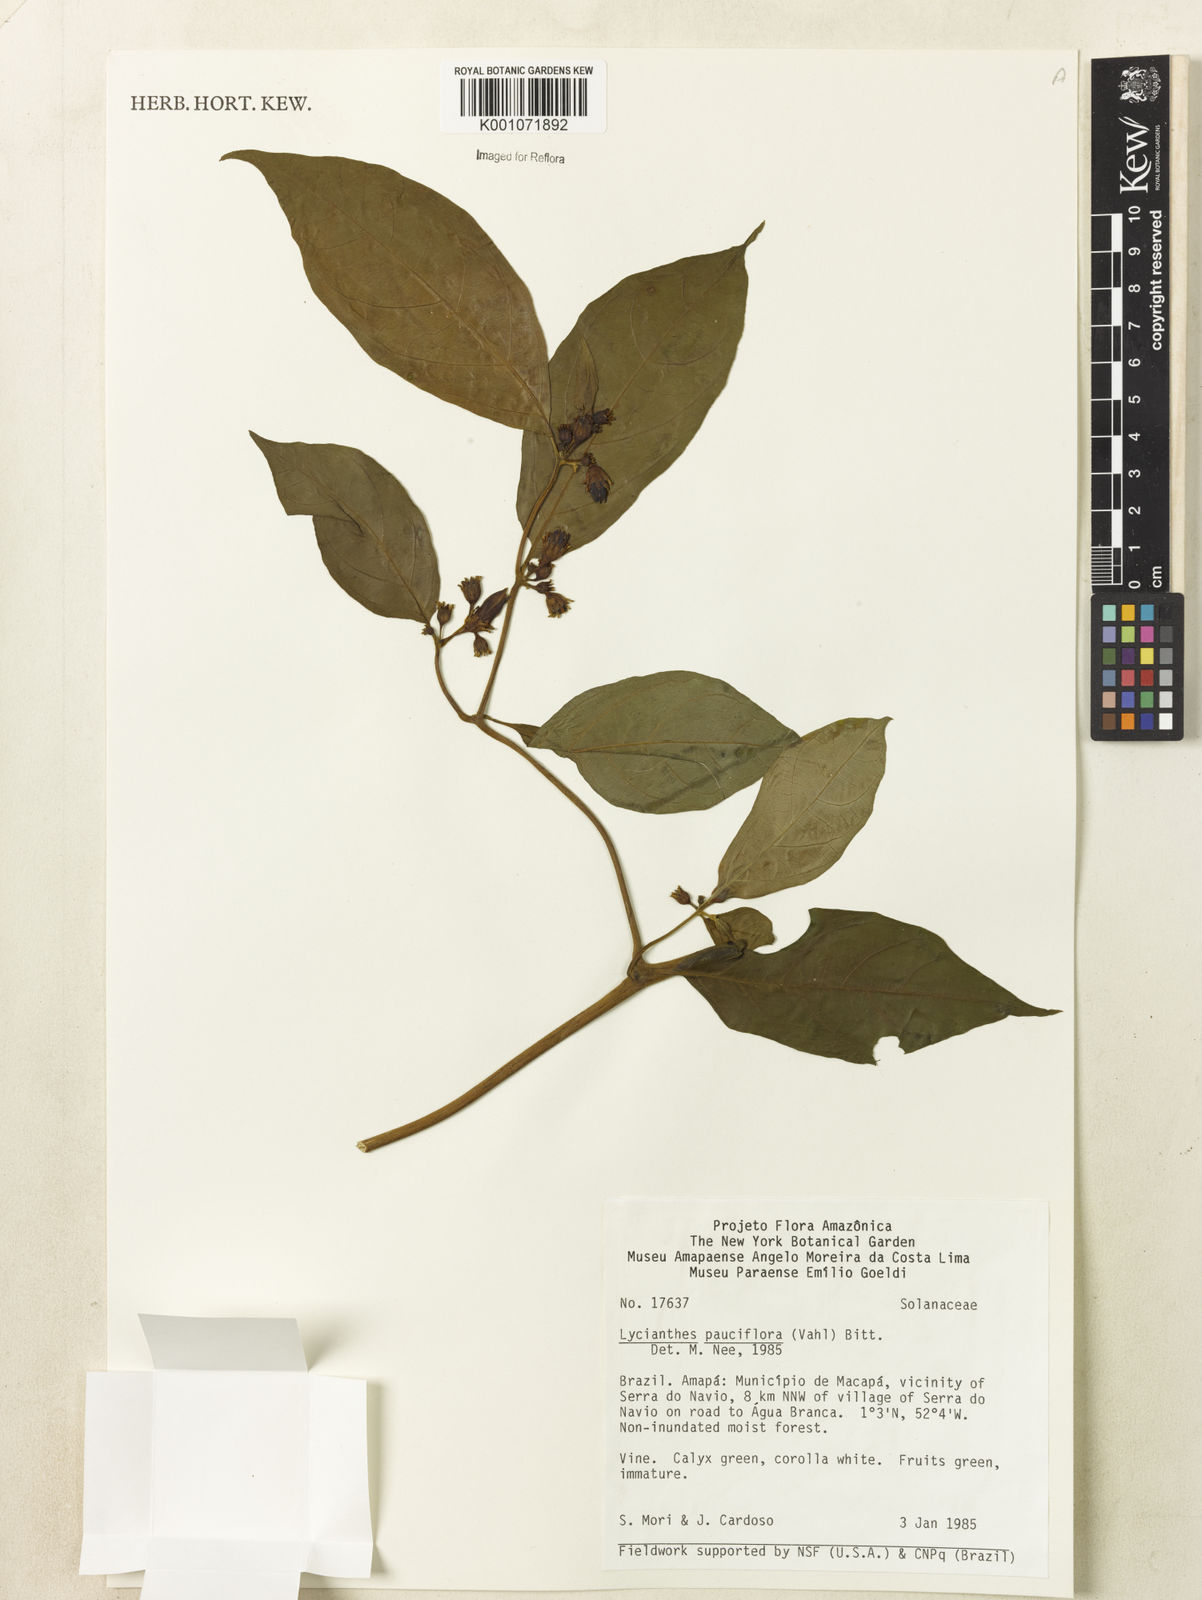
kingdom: Plantae
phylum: Tracheophyta
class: Magnoliopsida
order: Solanales
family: Solanaceae
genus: Lycianthes
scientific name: Lycianthes pauciflora
